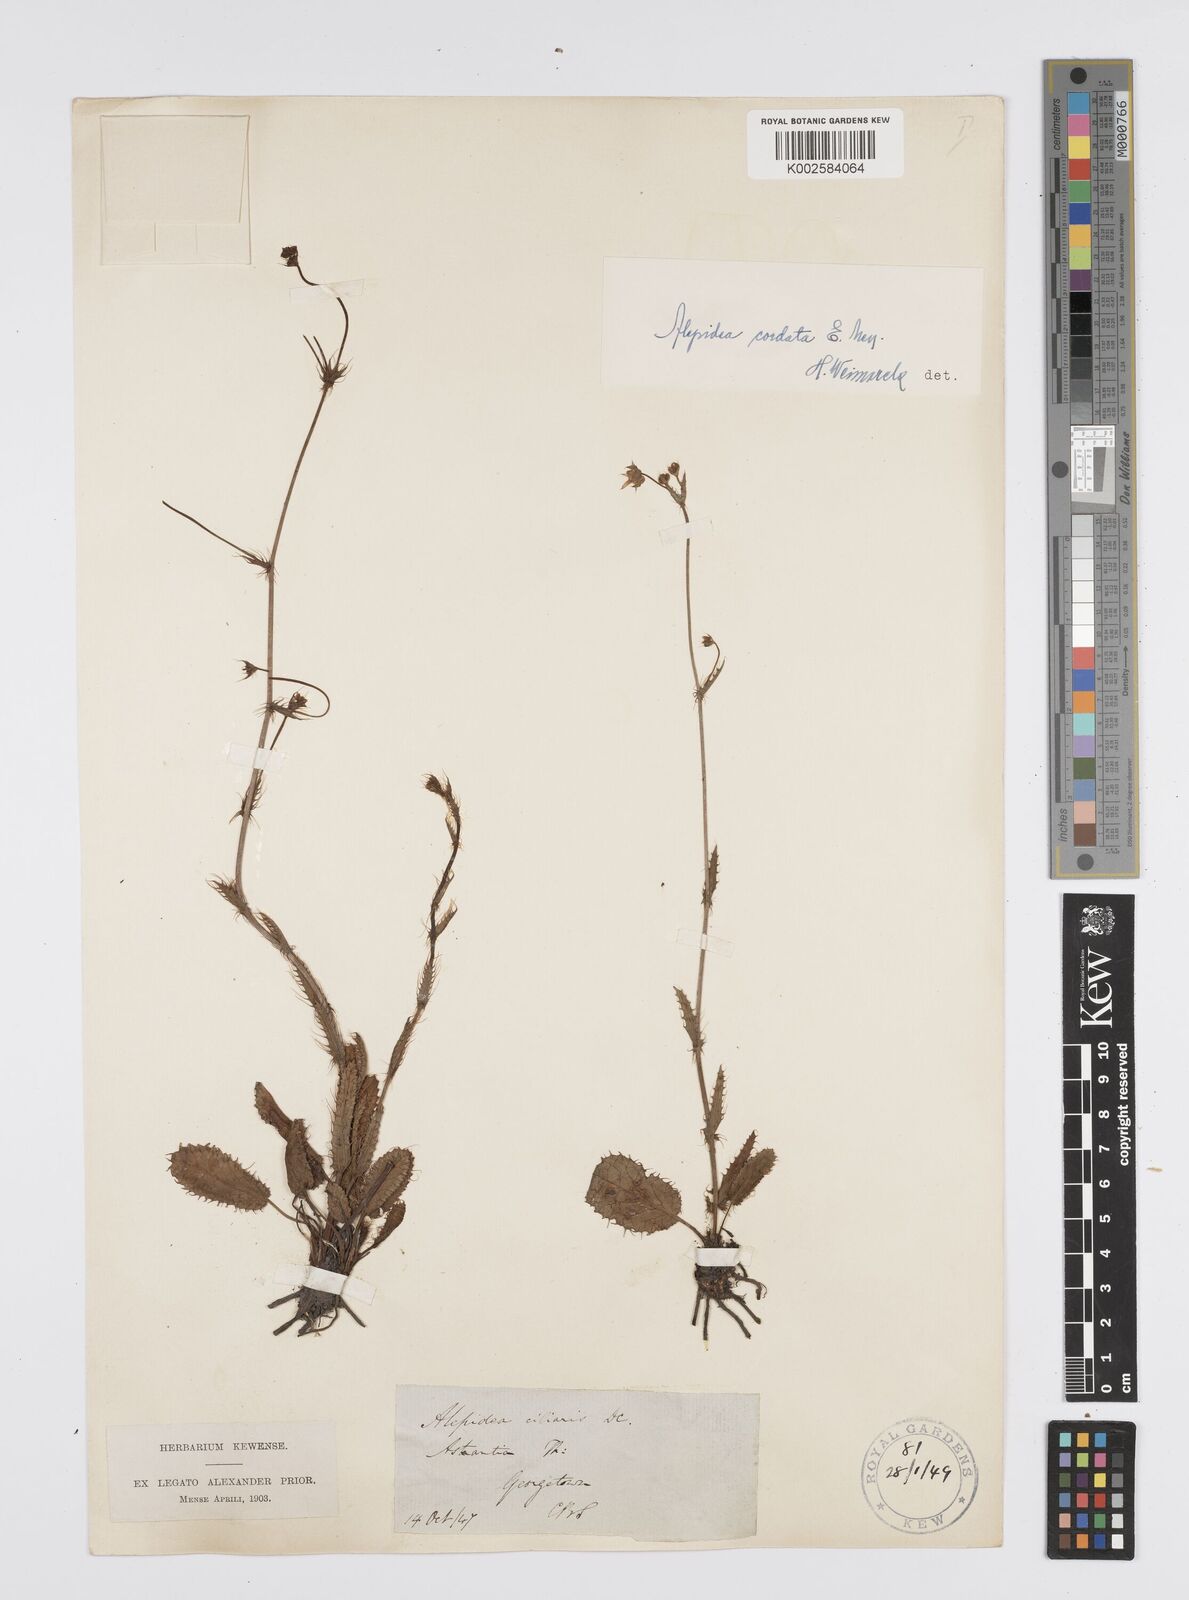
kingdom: Plantae
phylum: Tracheophyta
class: Magnoliopsida
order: Apiales
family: Apiaceae
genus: Alepidea
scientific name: Alepidea capensis
